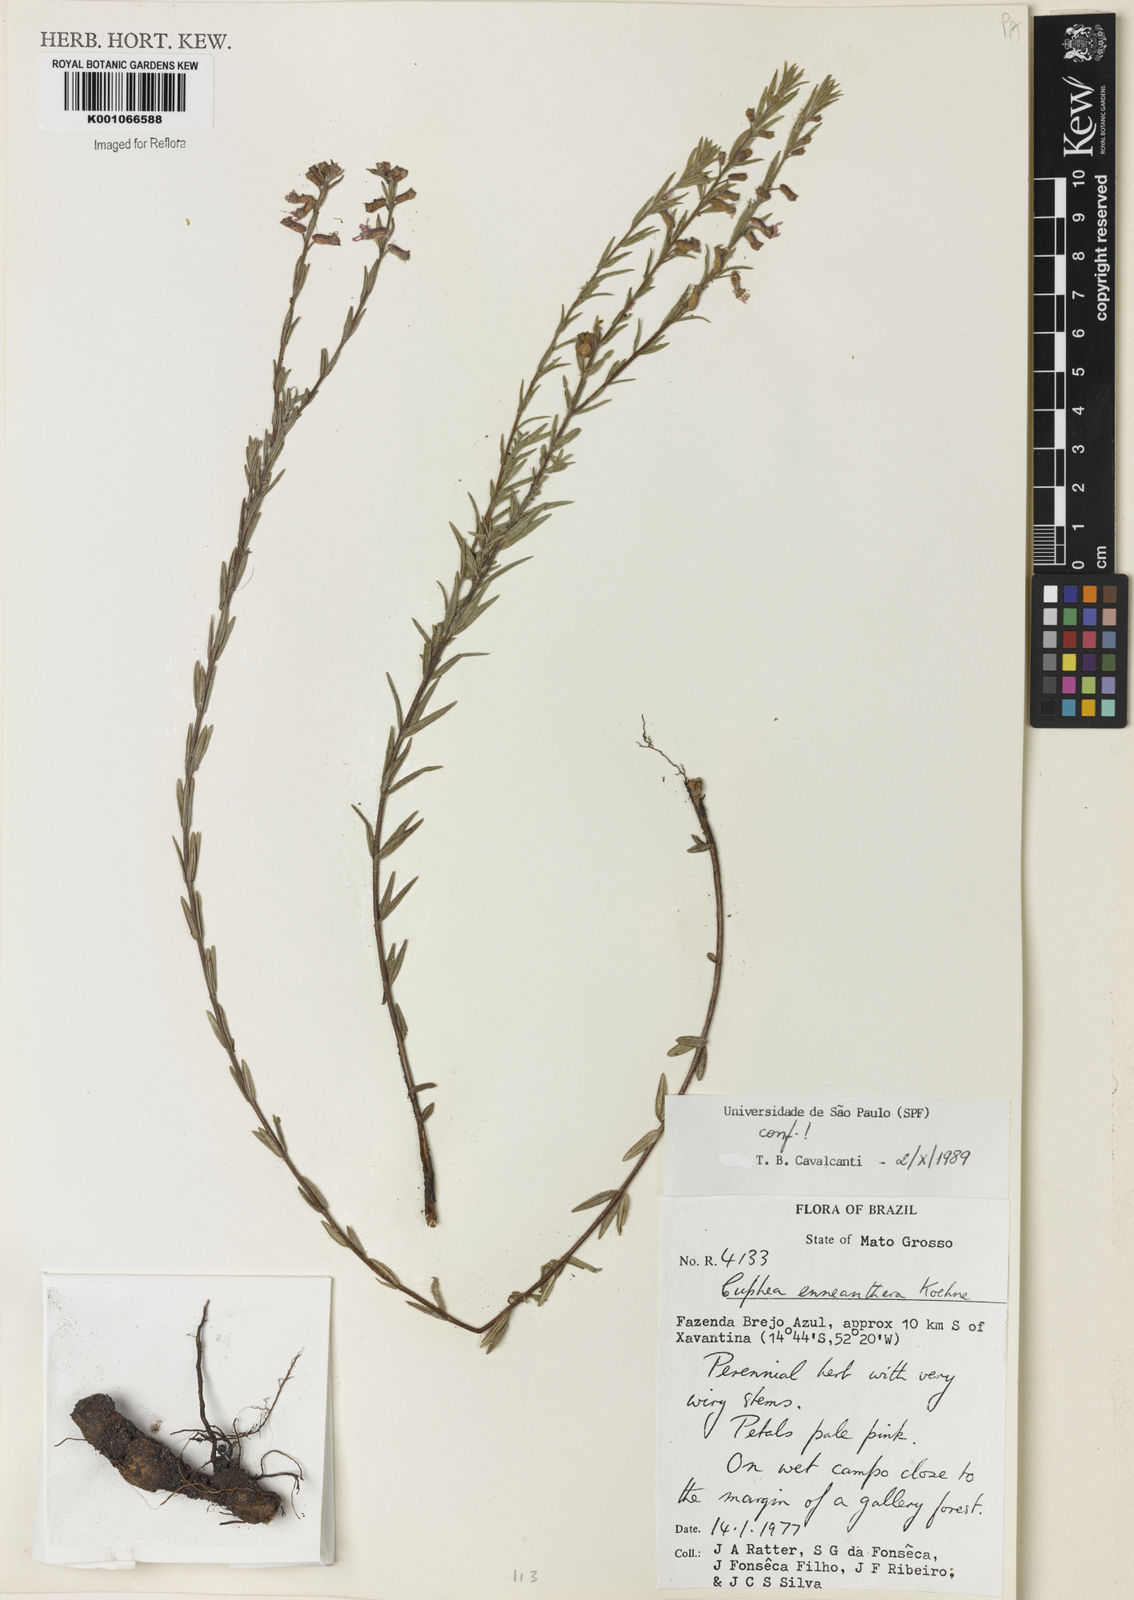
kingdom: Plantae
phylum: Tracheophyta
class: Magnoliopsida
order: Myrtales
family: Lythraceae
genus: Cuphea
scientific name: Cuphea retrorsicapilla
